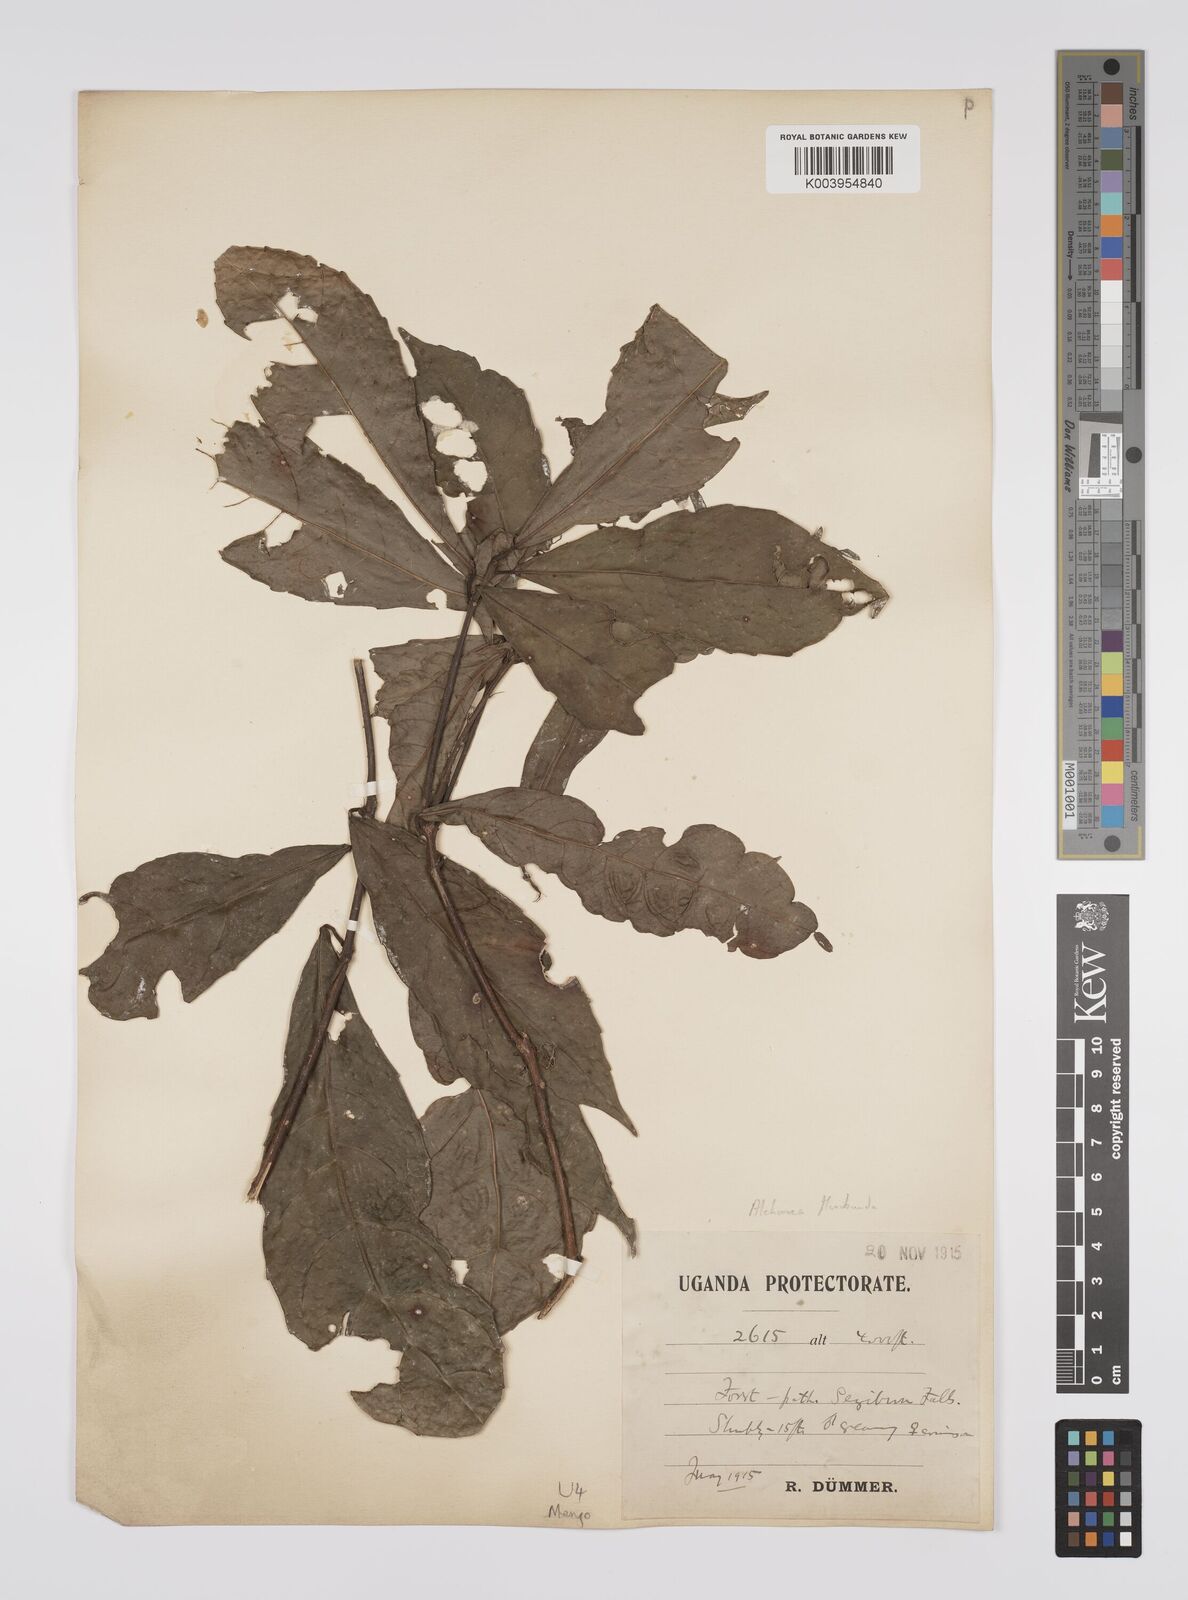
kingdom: Plantae
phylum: Tracheophyta
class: Magnoliopsida
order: Malpighiales
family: Euphorbiaceae
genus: Alchornea
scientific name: Alchornea hirtella
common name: Forest bead-string
